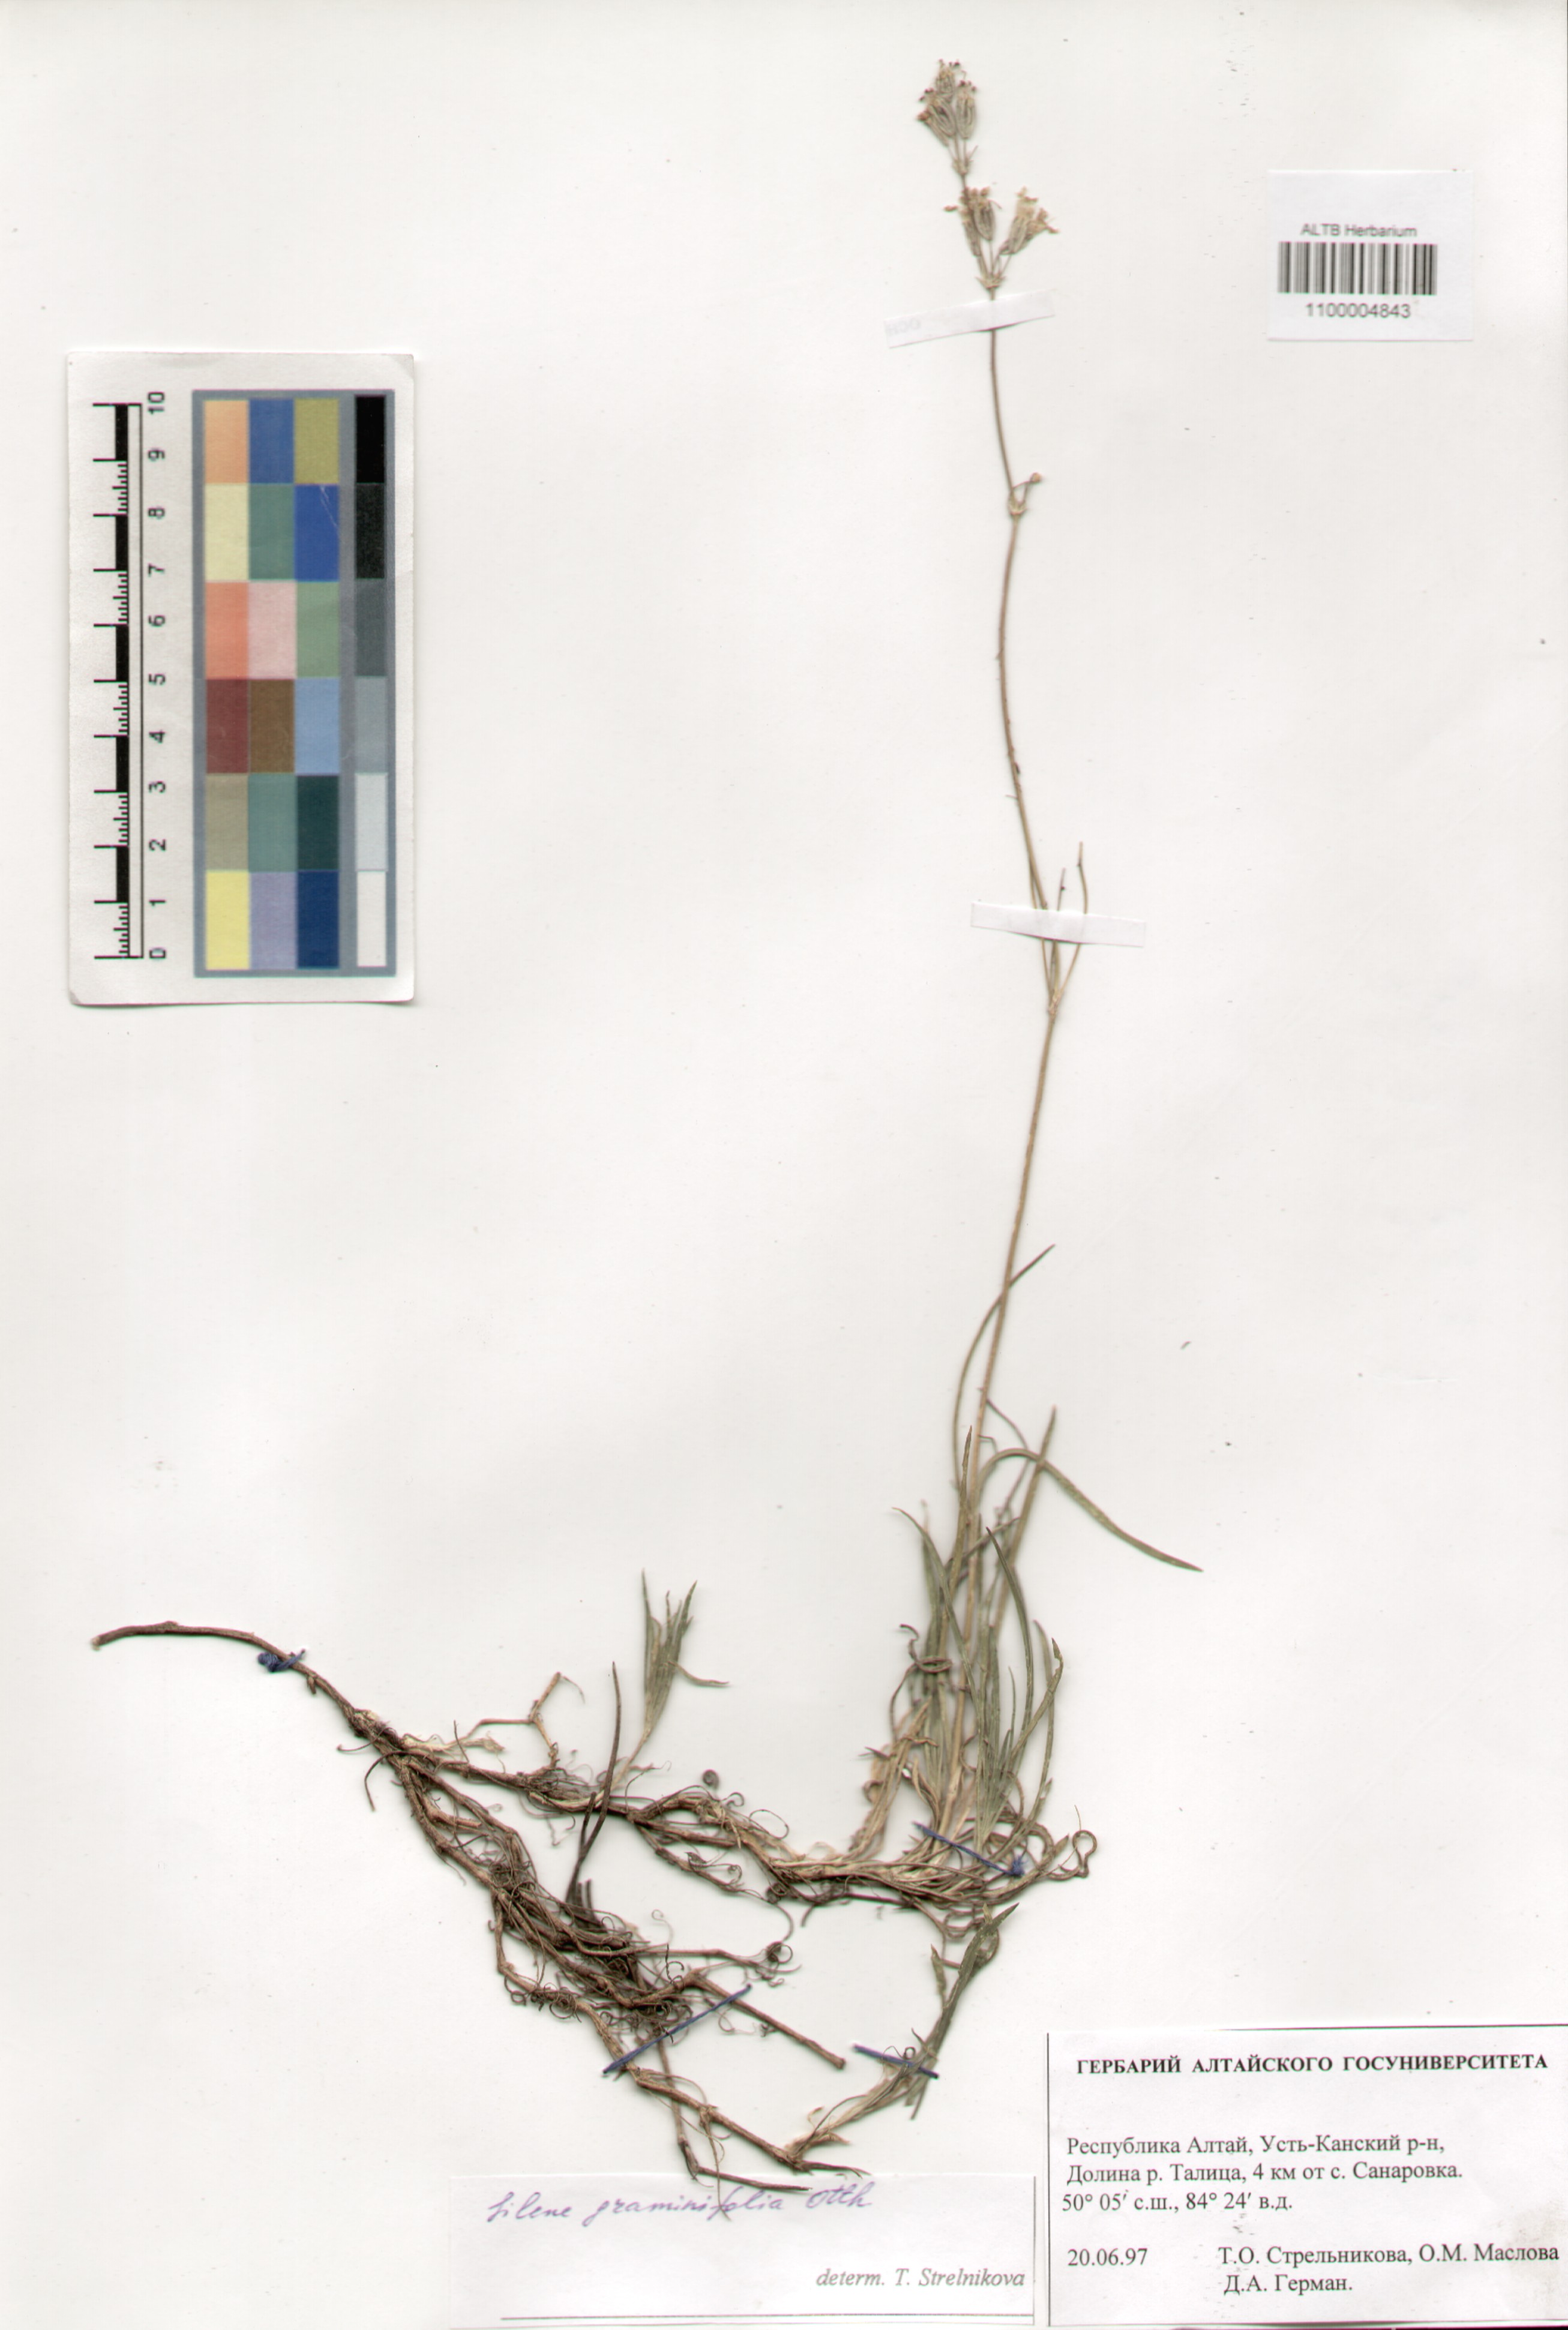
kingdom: Plantae
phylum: Tracheophyta
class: Magnoliopsida
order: Caryophyllales
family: Caryophyllaceae
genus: Silene
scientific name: Silene graminifolia
